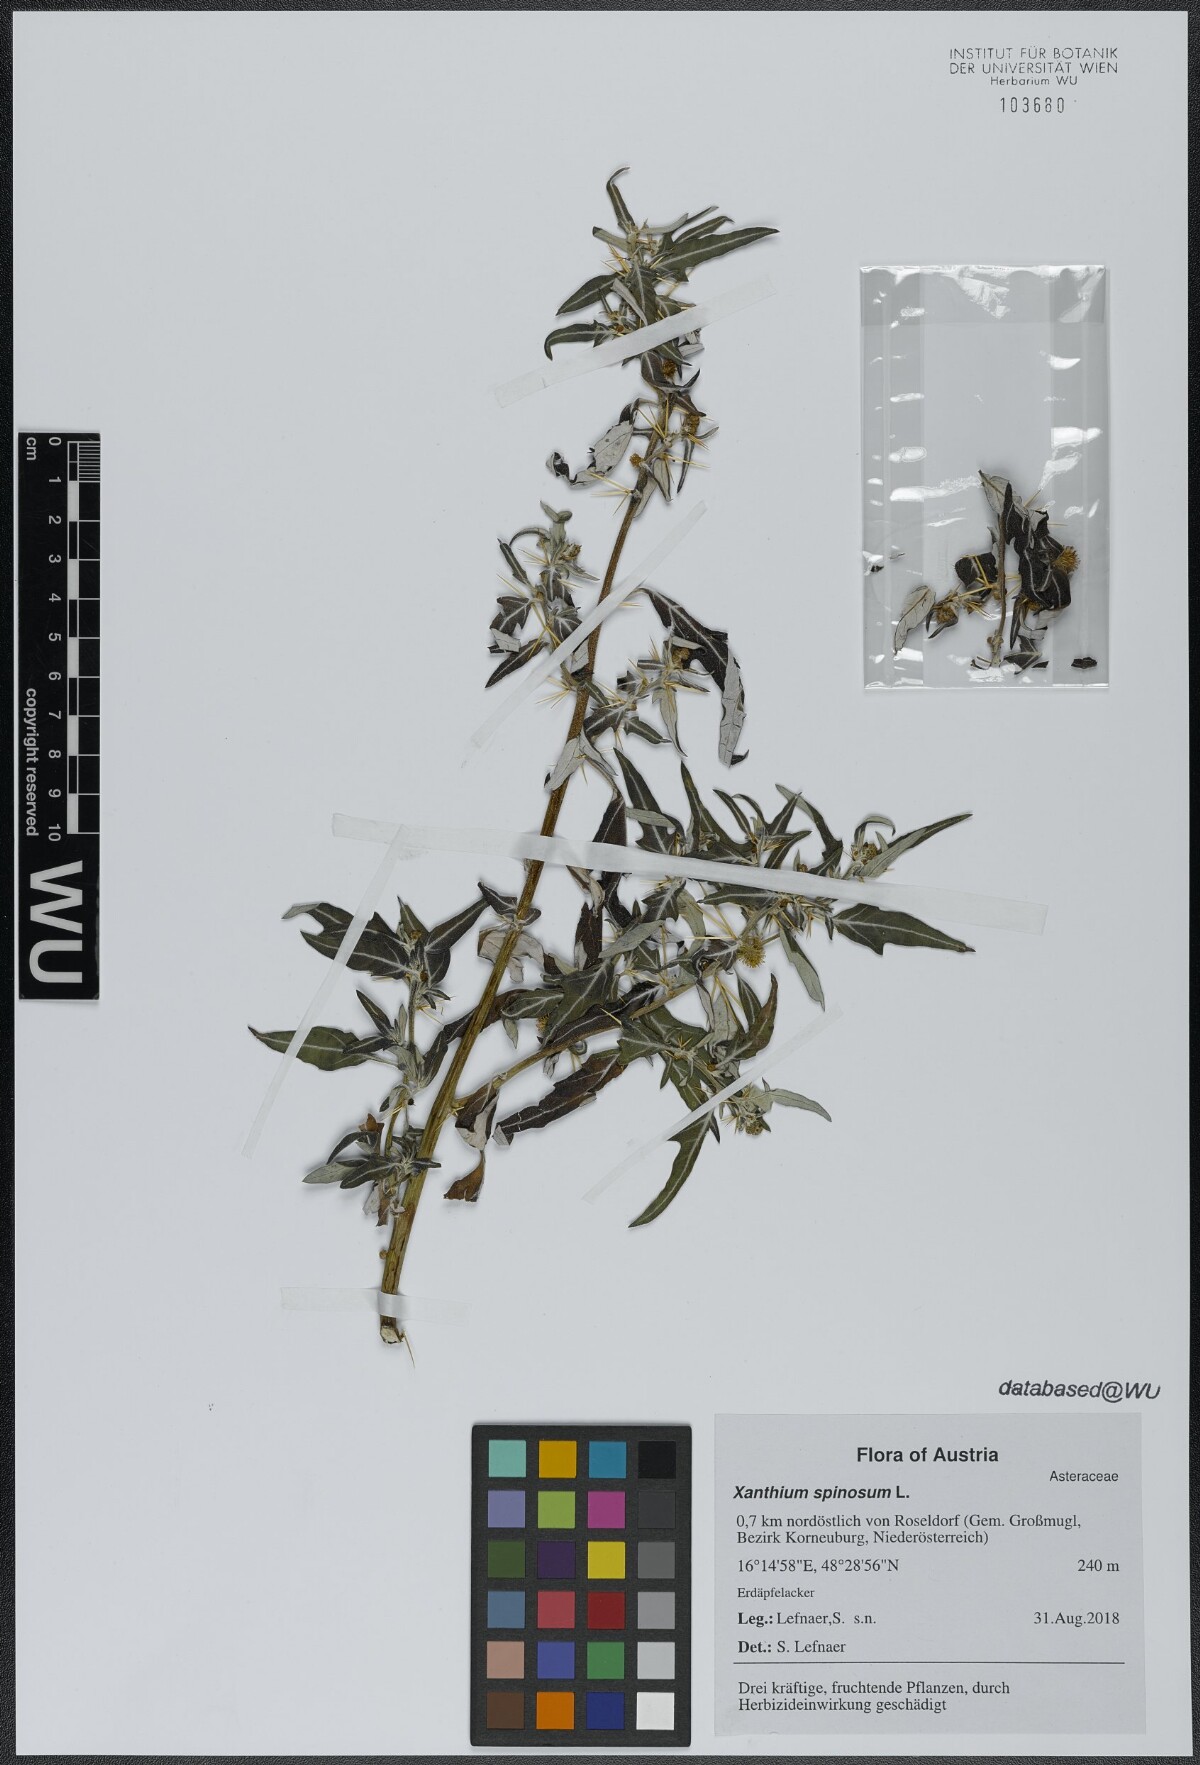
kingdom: Plantae
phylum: Tracheophyta
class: Magnoliopsida
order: Asterales
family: Asteraceae
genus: Xanthium
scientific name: Xanthium spinosum
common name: Spiny cocklebur
